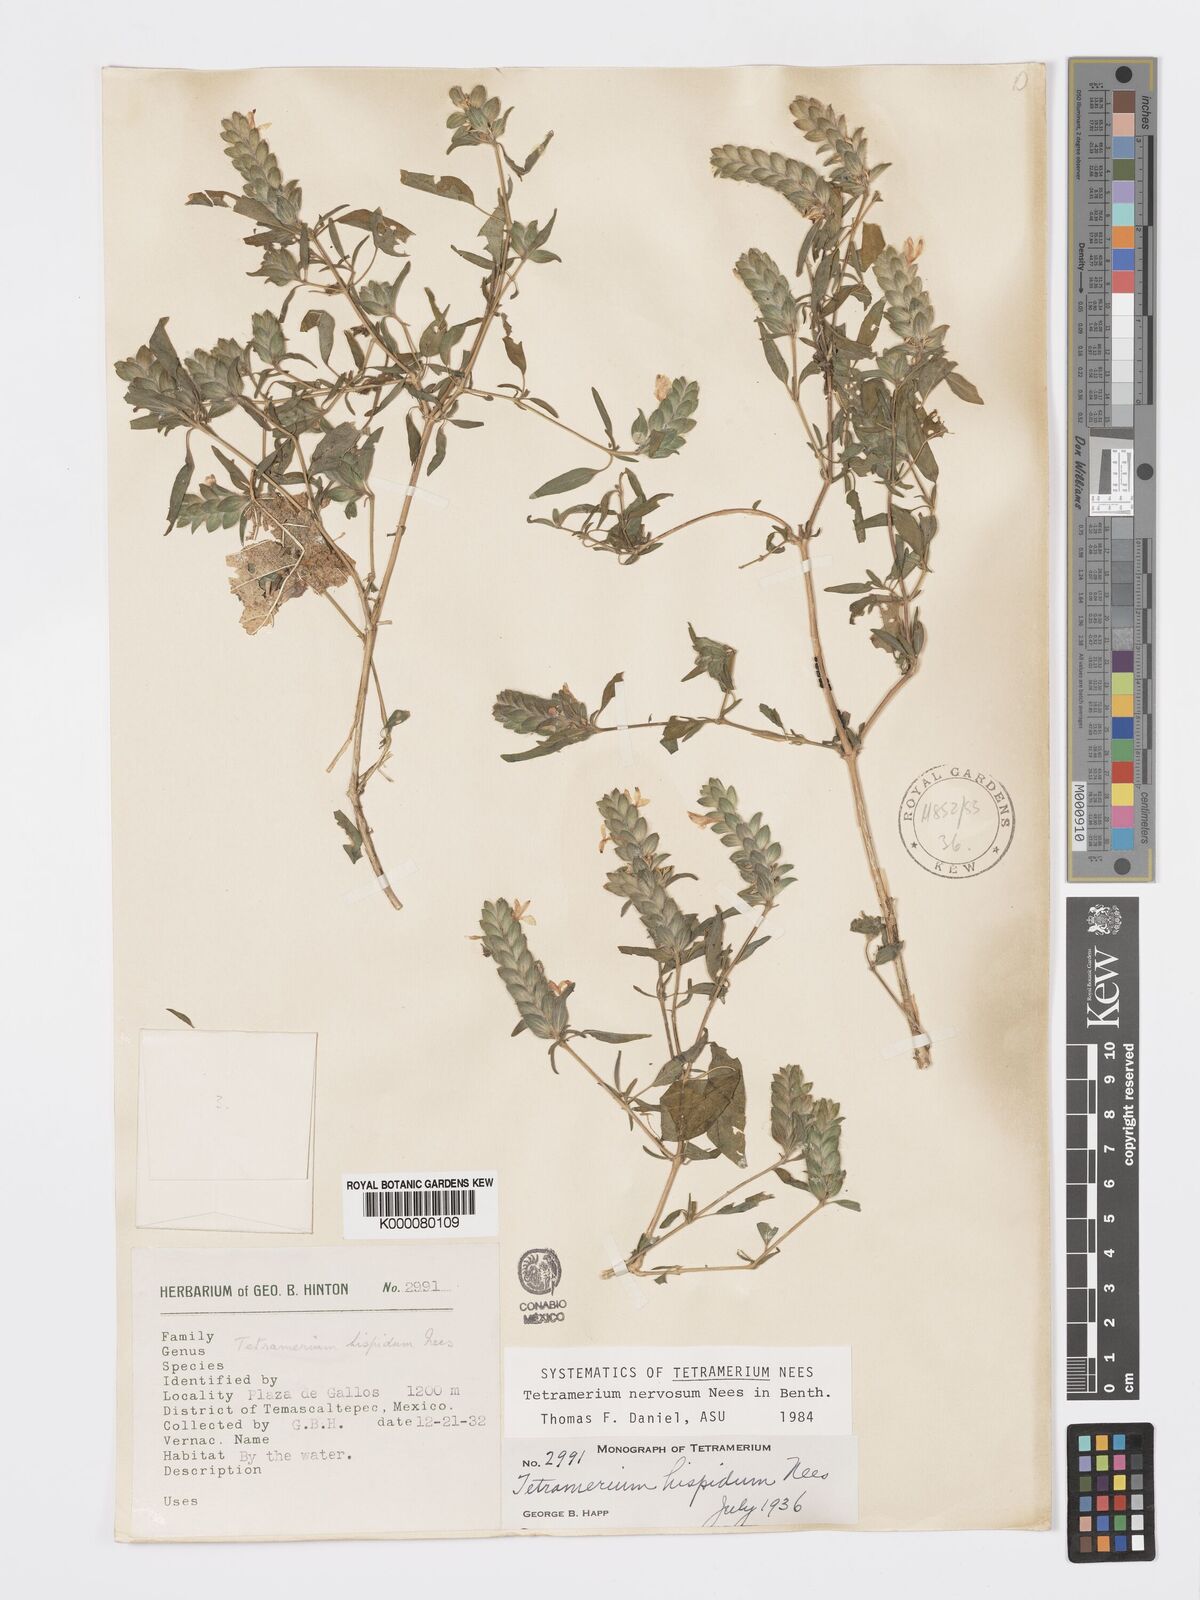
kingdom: Plantae
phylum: Tracheophyta
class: Magnoliopsida
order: Lamiales
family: Acanthaceae
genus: Tetramerium
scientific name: Tetramerium nervosum
